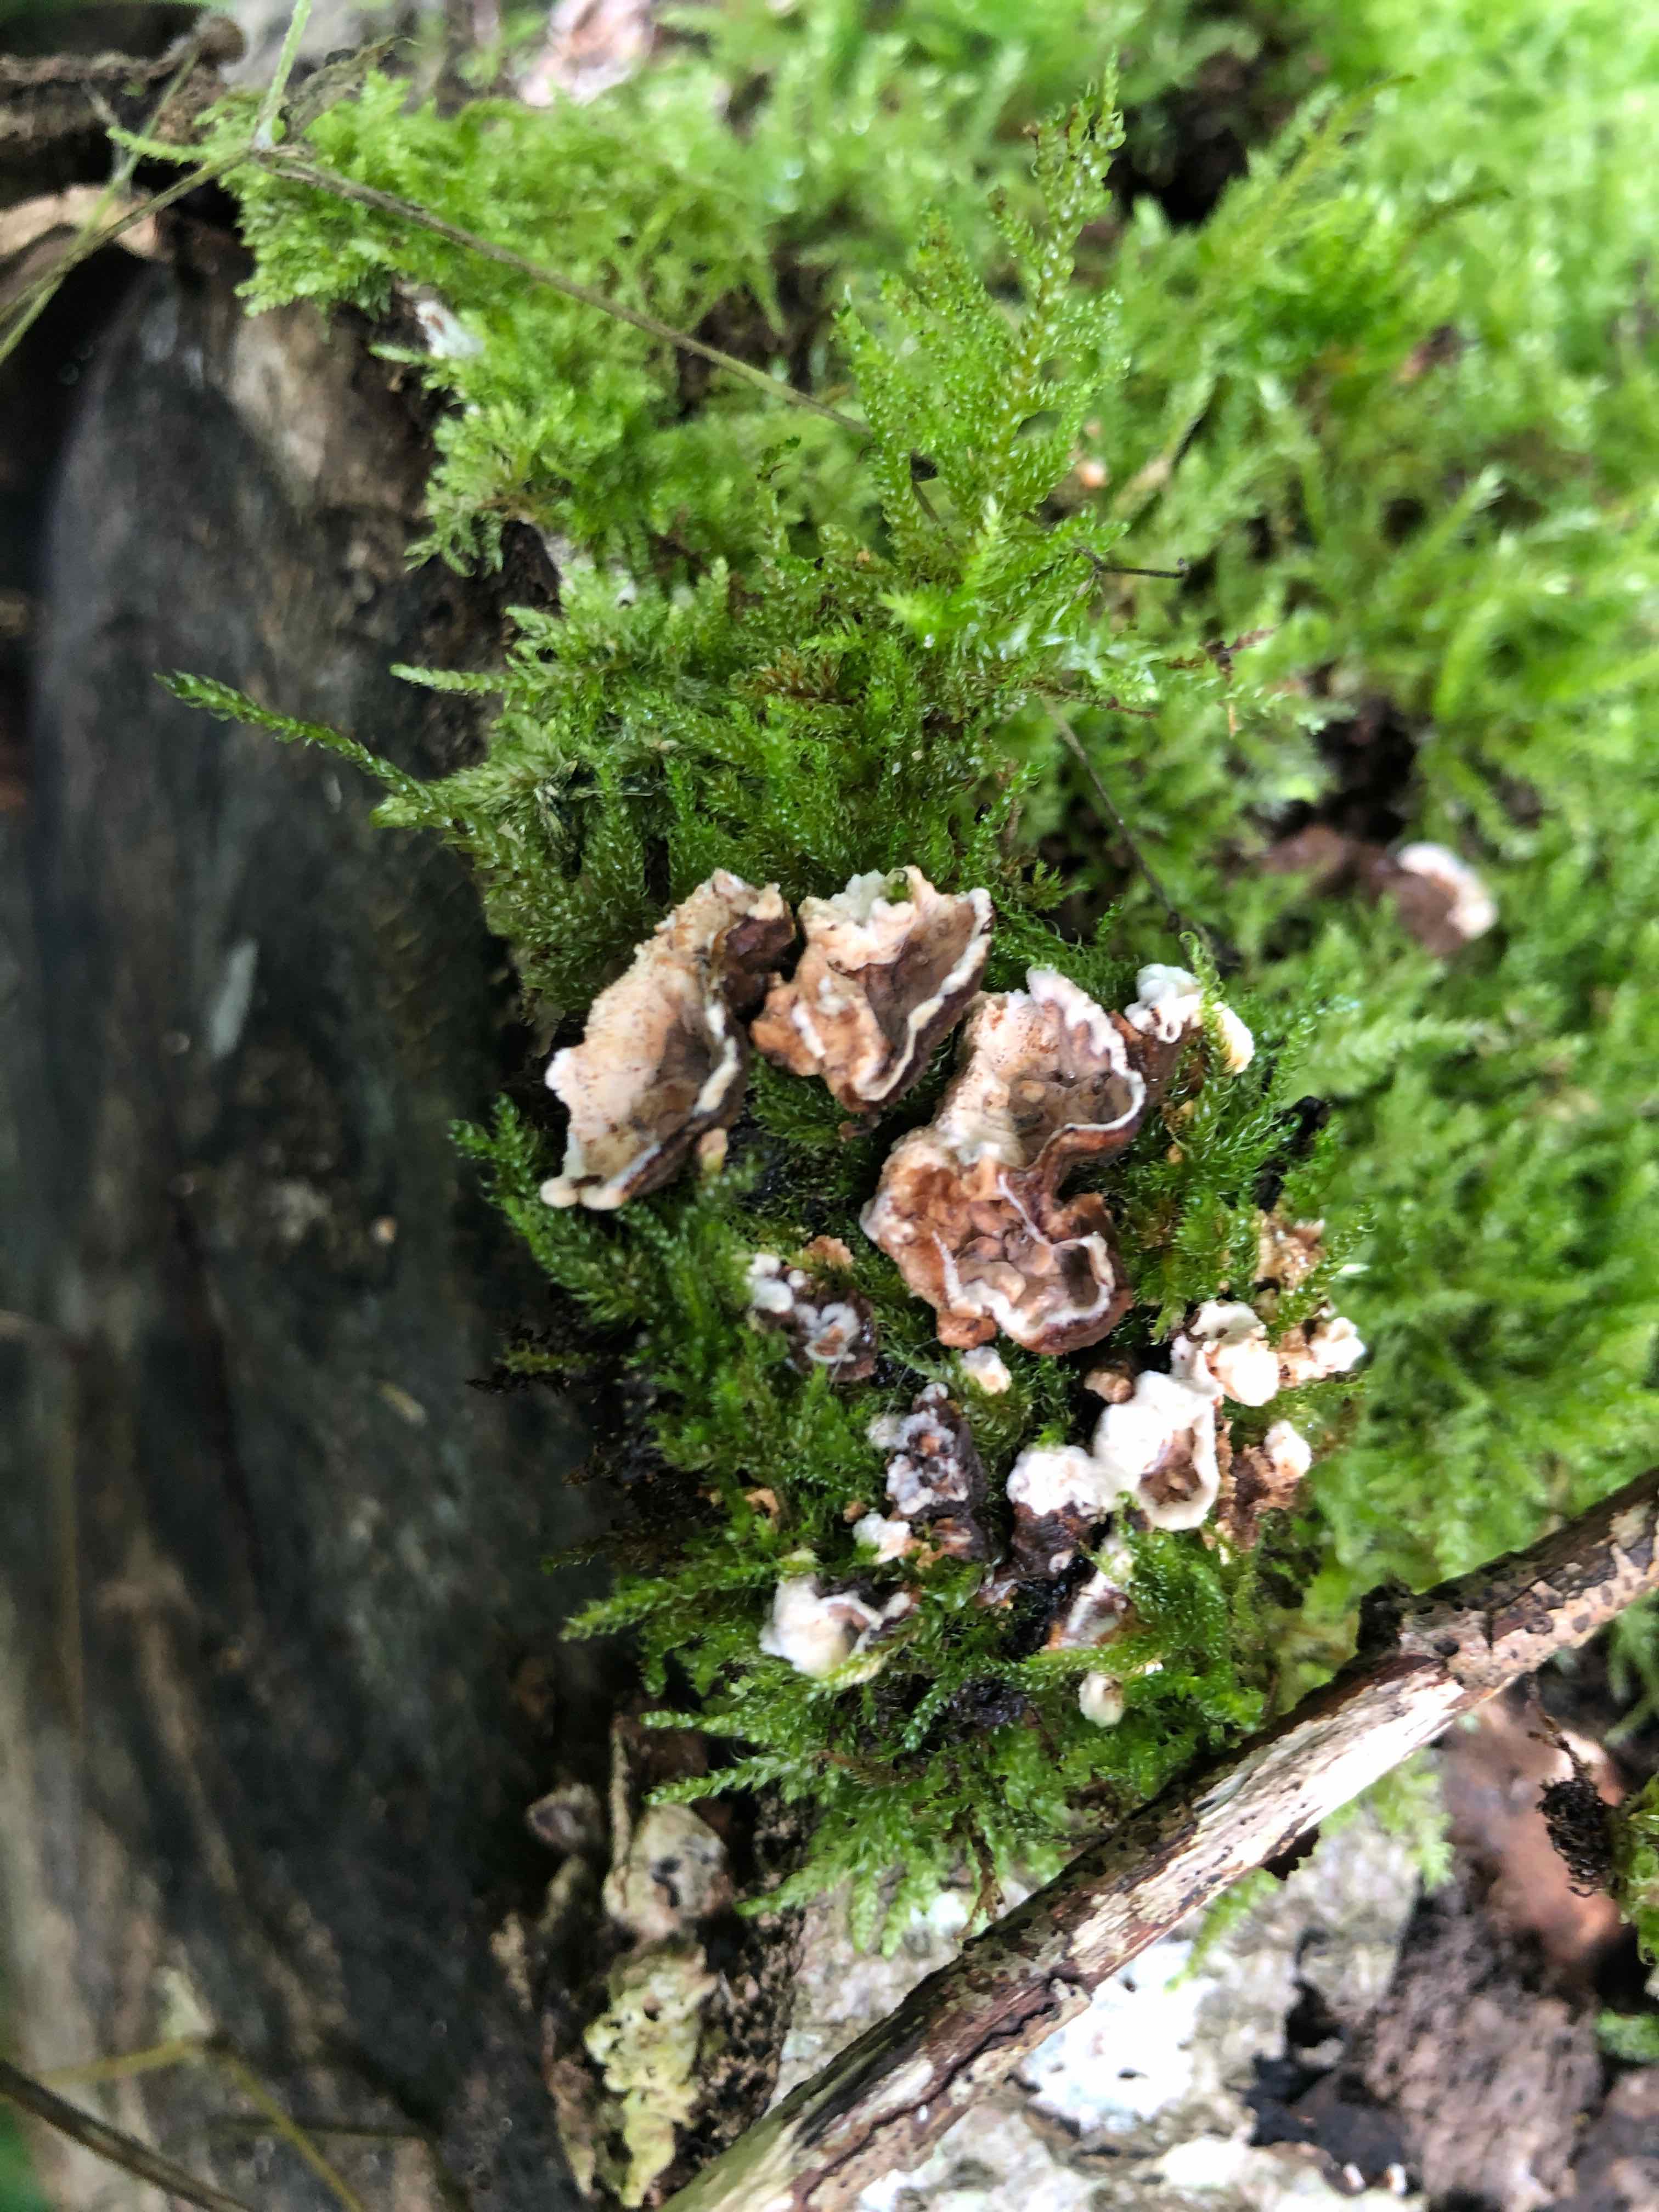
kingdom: Fungi
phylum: Basidiomycota
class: Agaricomycetes
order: Russulales
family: Hericiaceae
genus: Laxitextum
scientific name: Laxitextum bicolor
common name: tvefarvet filtskind
